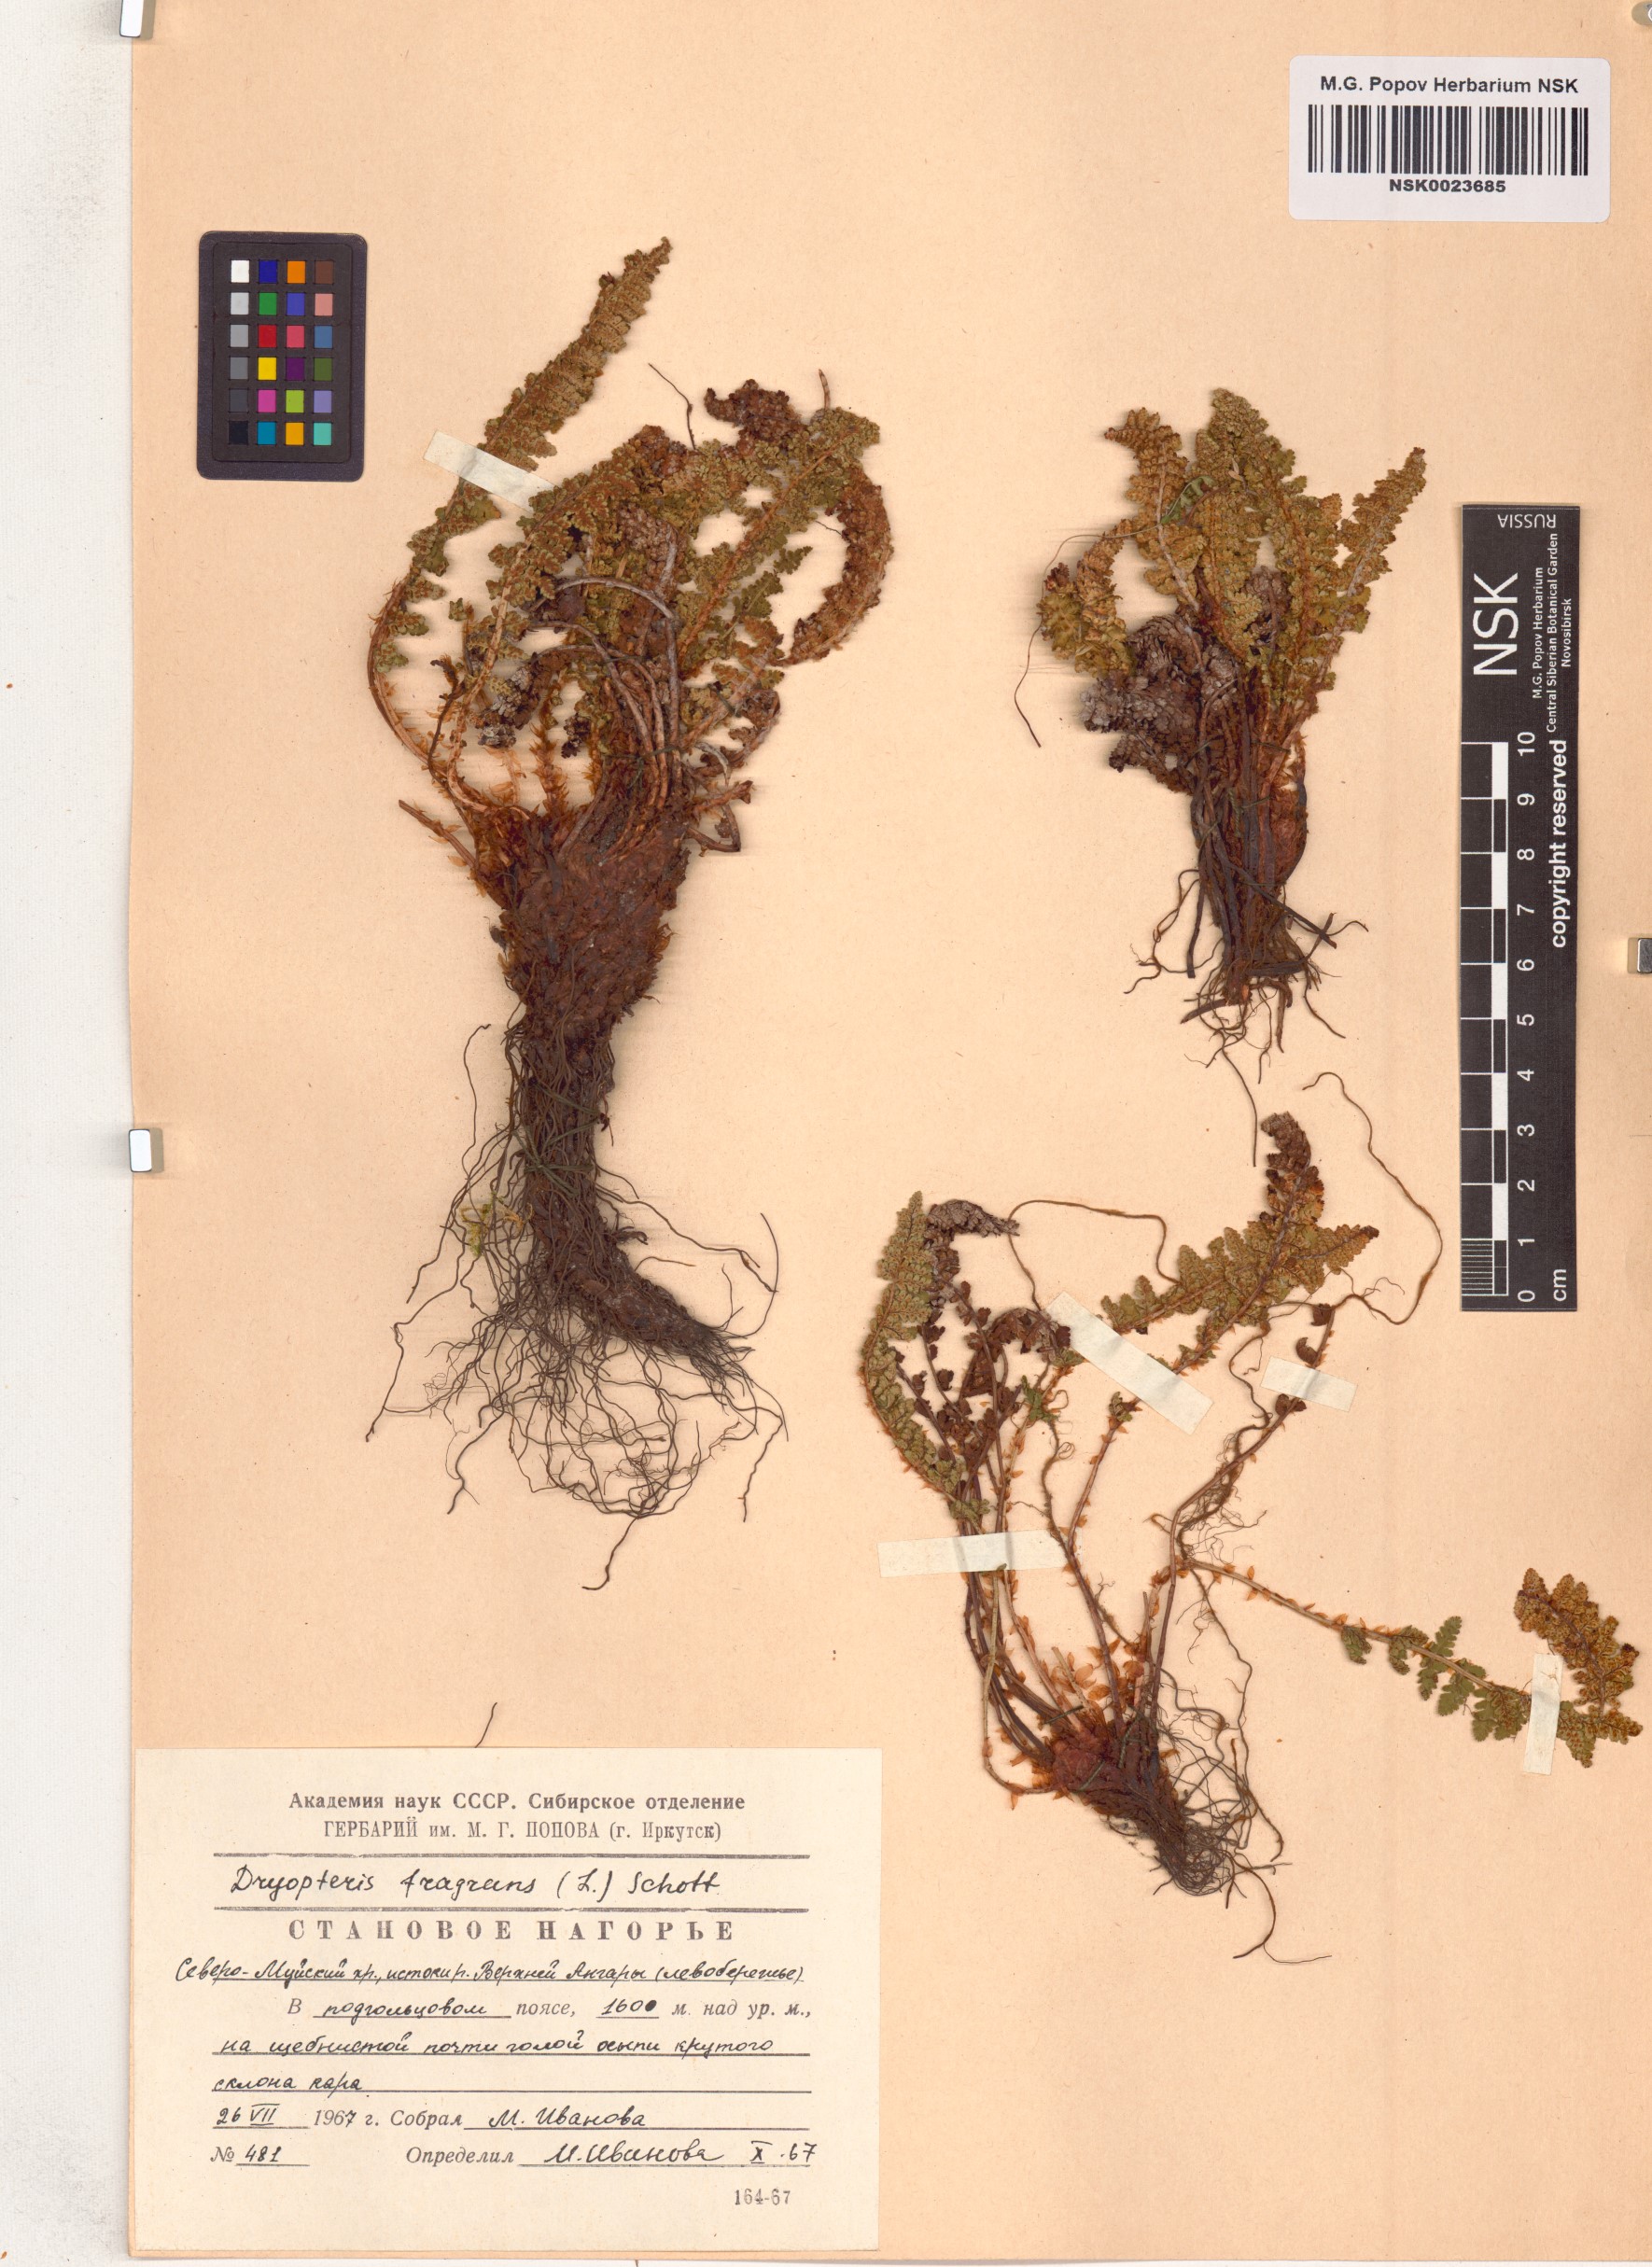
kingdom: Plantae
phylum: Tracheophyta
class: Polypodiopsida
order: Polypodiales
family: Dryopteridaceae
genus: Dryopteris
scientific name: Dryopteris fragrans
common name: Fragrant wood fern
